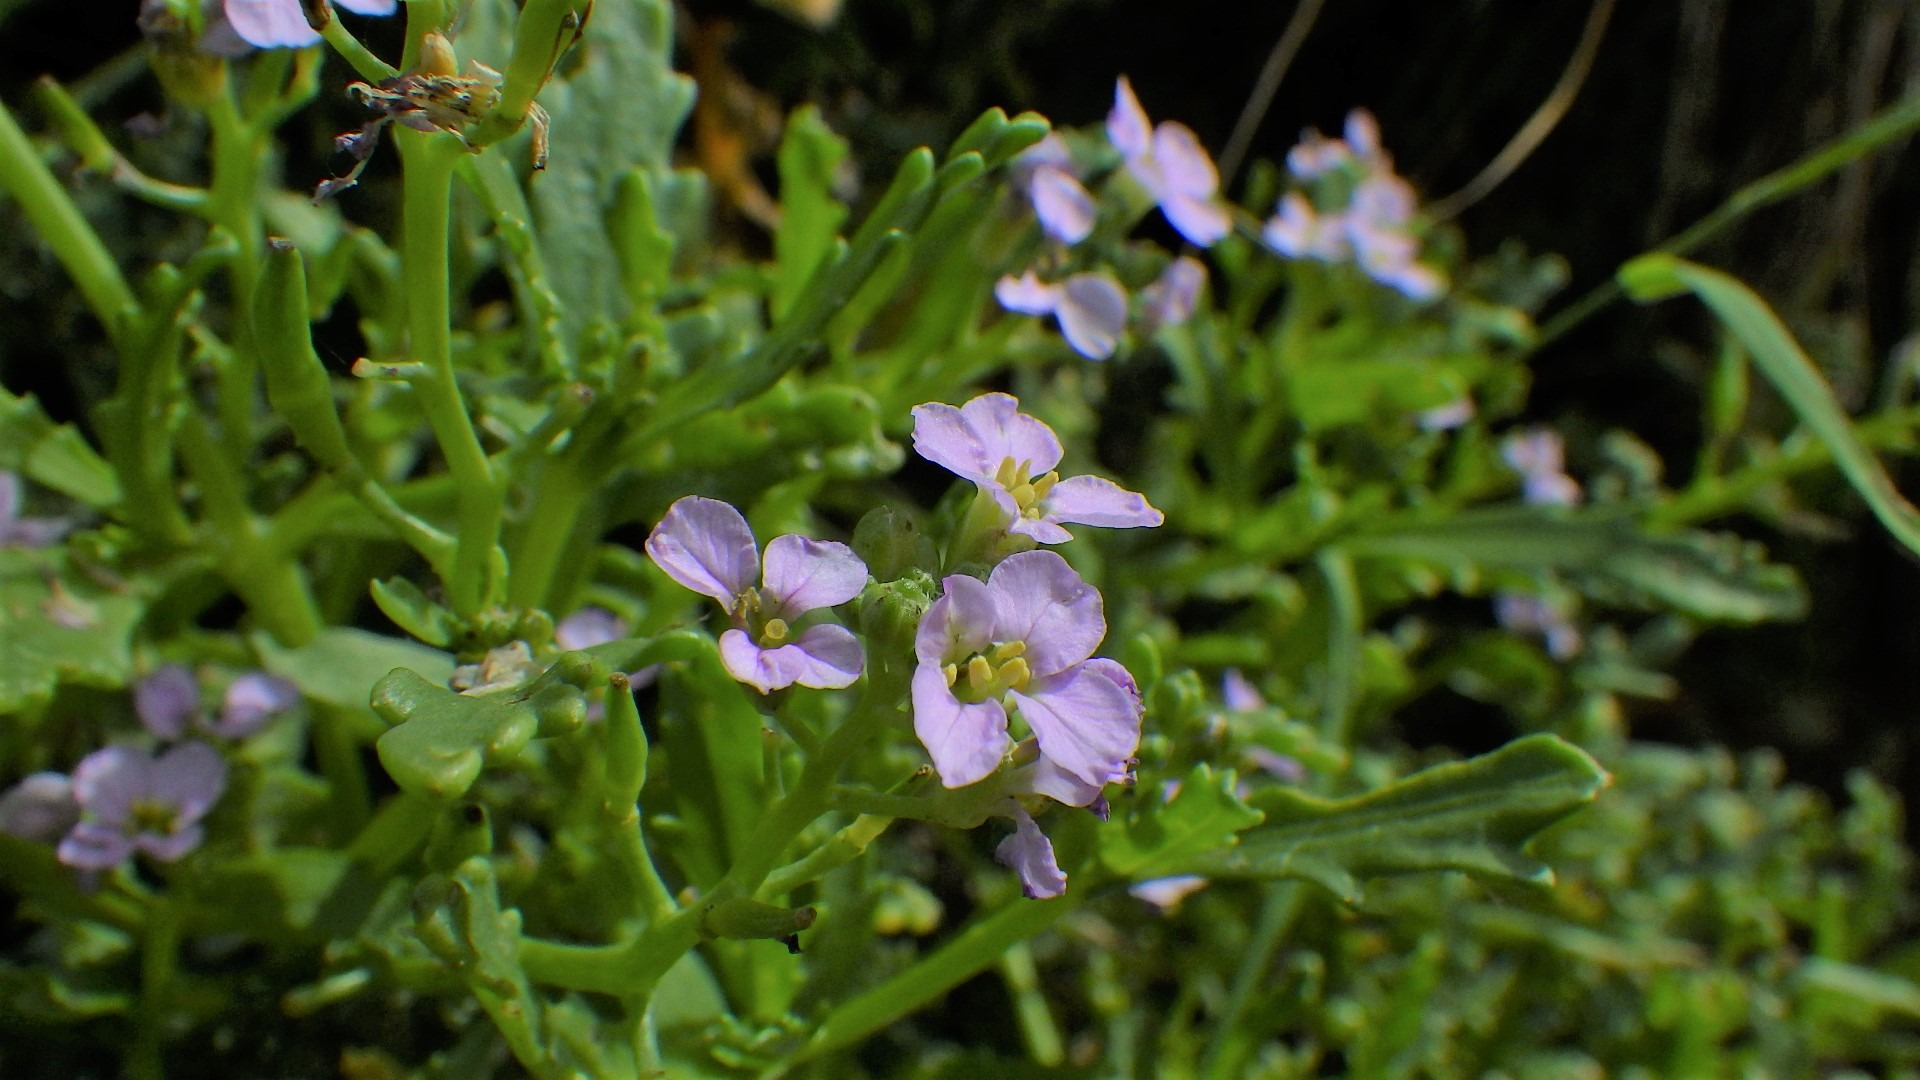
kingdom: Plantae
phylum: Tracheophyta
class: Magnoliopsida
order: Brassicales
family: Brassicaceae
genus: Cakile
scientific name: Cakile maritima
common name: Strandsennep
